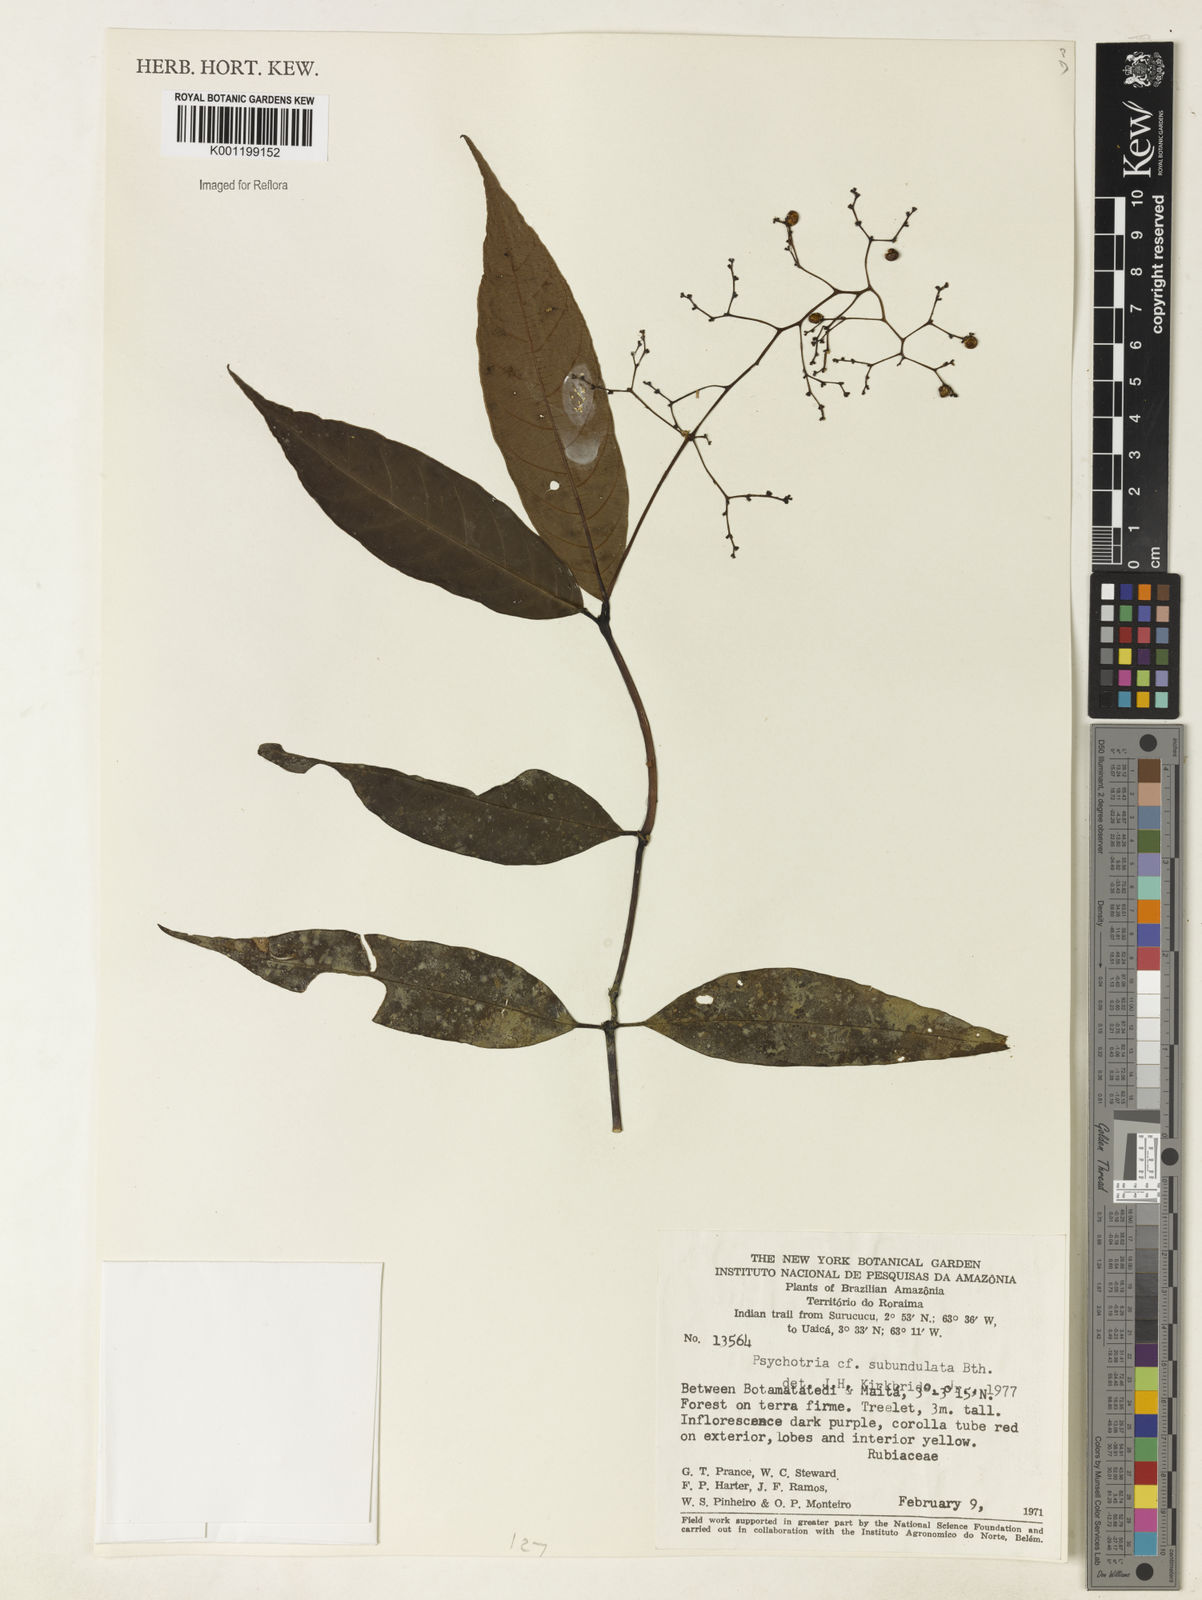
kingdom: Plantae
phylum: Tracheophyta
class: Magnoliopsida
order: Gentianales
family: Rubiaceae
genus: Palicourea
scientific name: Palicourea subundulata
